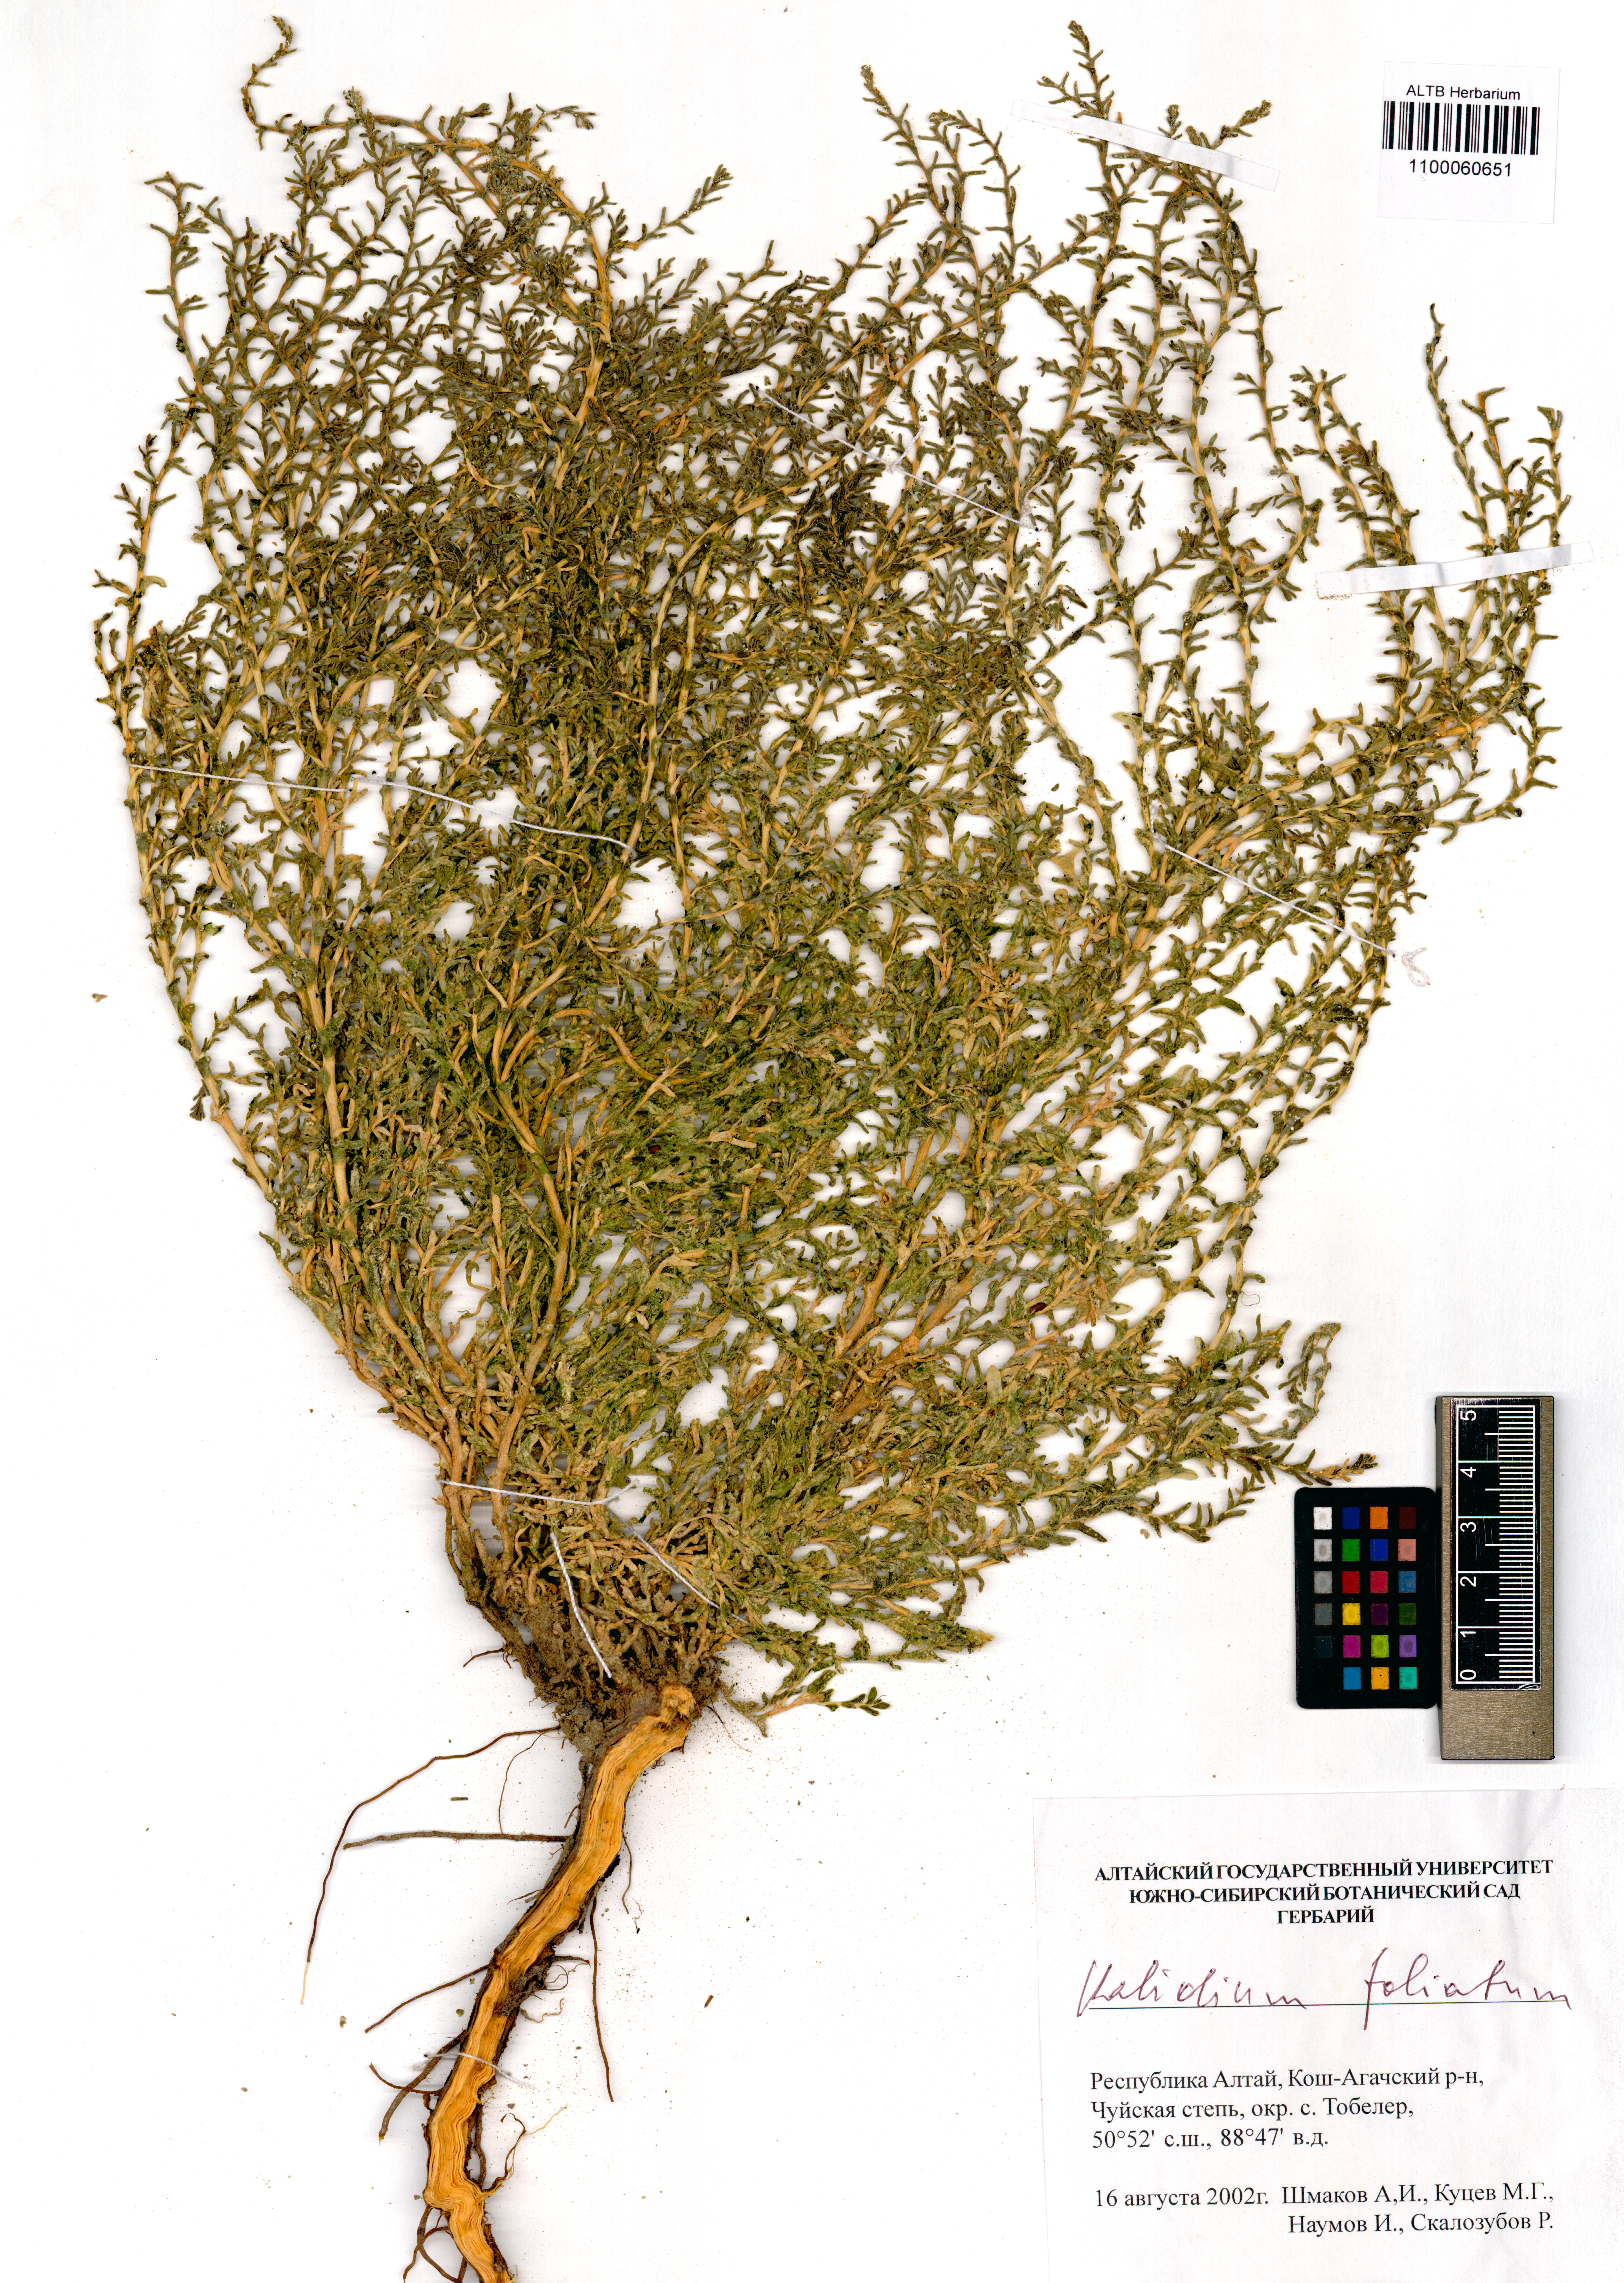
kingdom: Plantae
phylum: Tracheophyta
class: Magnoliopsida
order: Caryophyllales
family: Amaranthaceae
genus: Kalidium
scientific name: Kalidium foliatum
